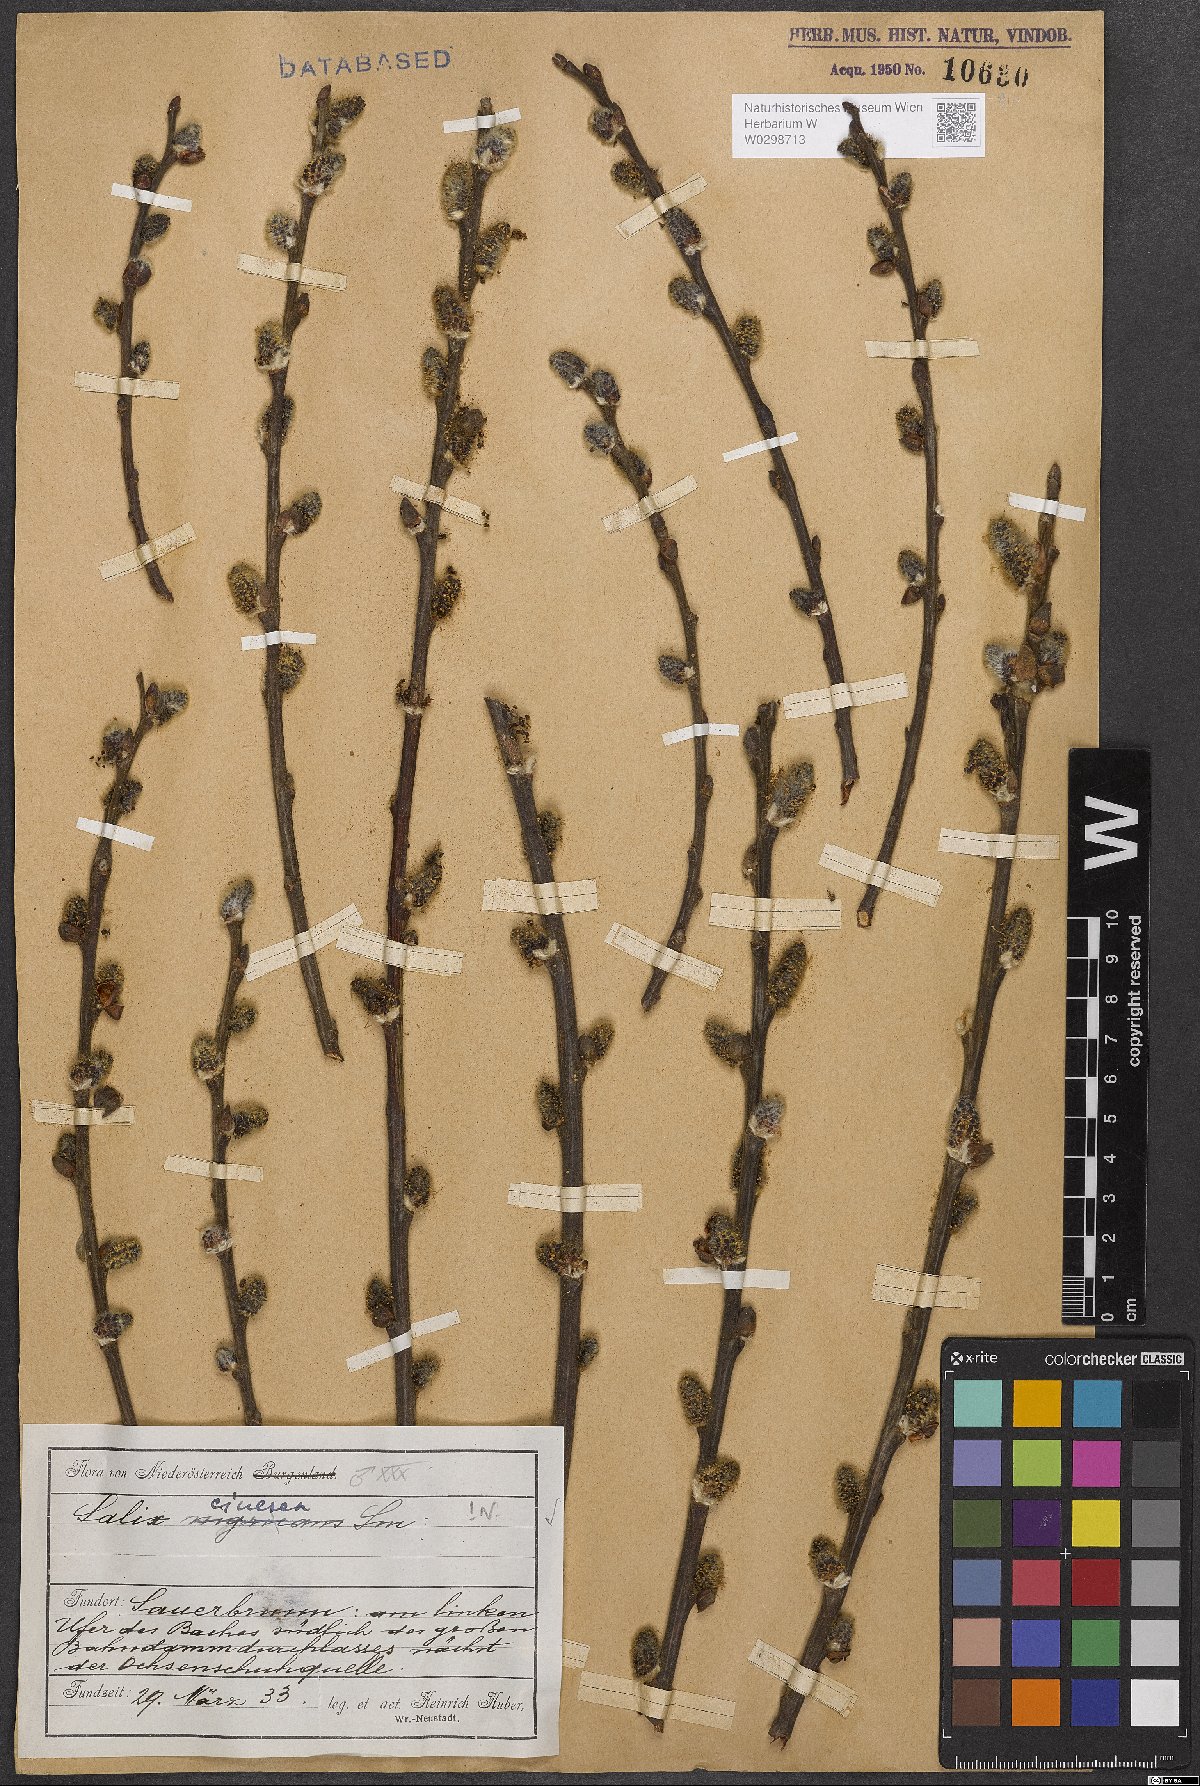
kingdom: Plantae
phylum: Tracheophyta
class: Magnoliopsida
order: Malpighiales
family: Salicaceae
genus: Salix
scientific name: Salix cinerea
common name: Common sallow
